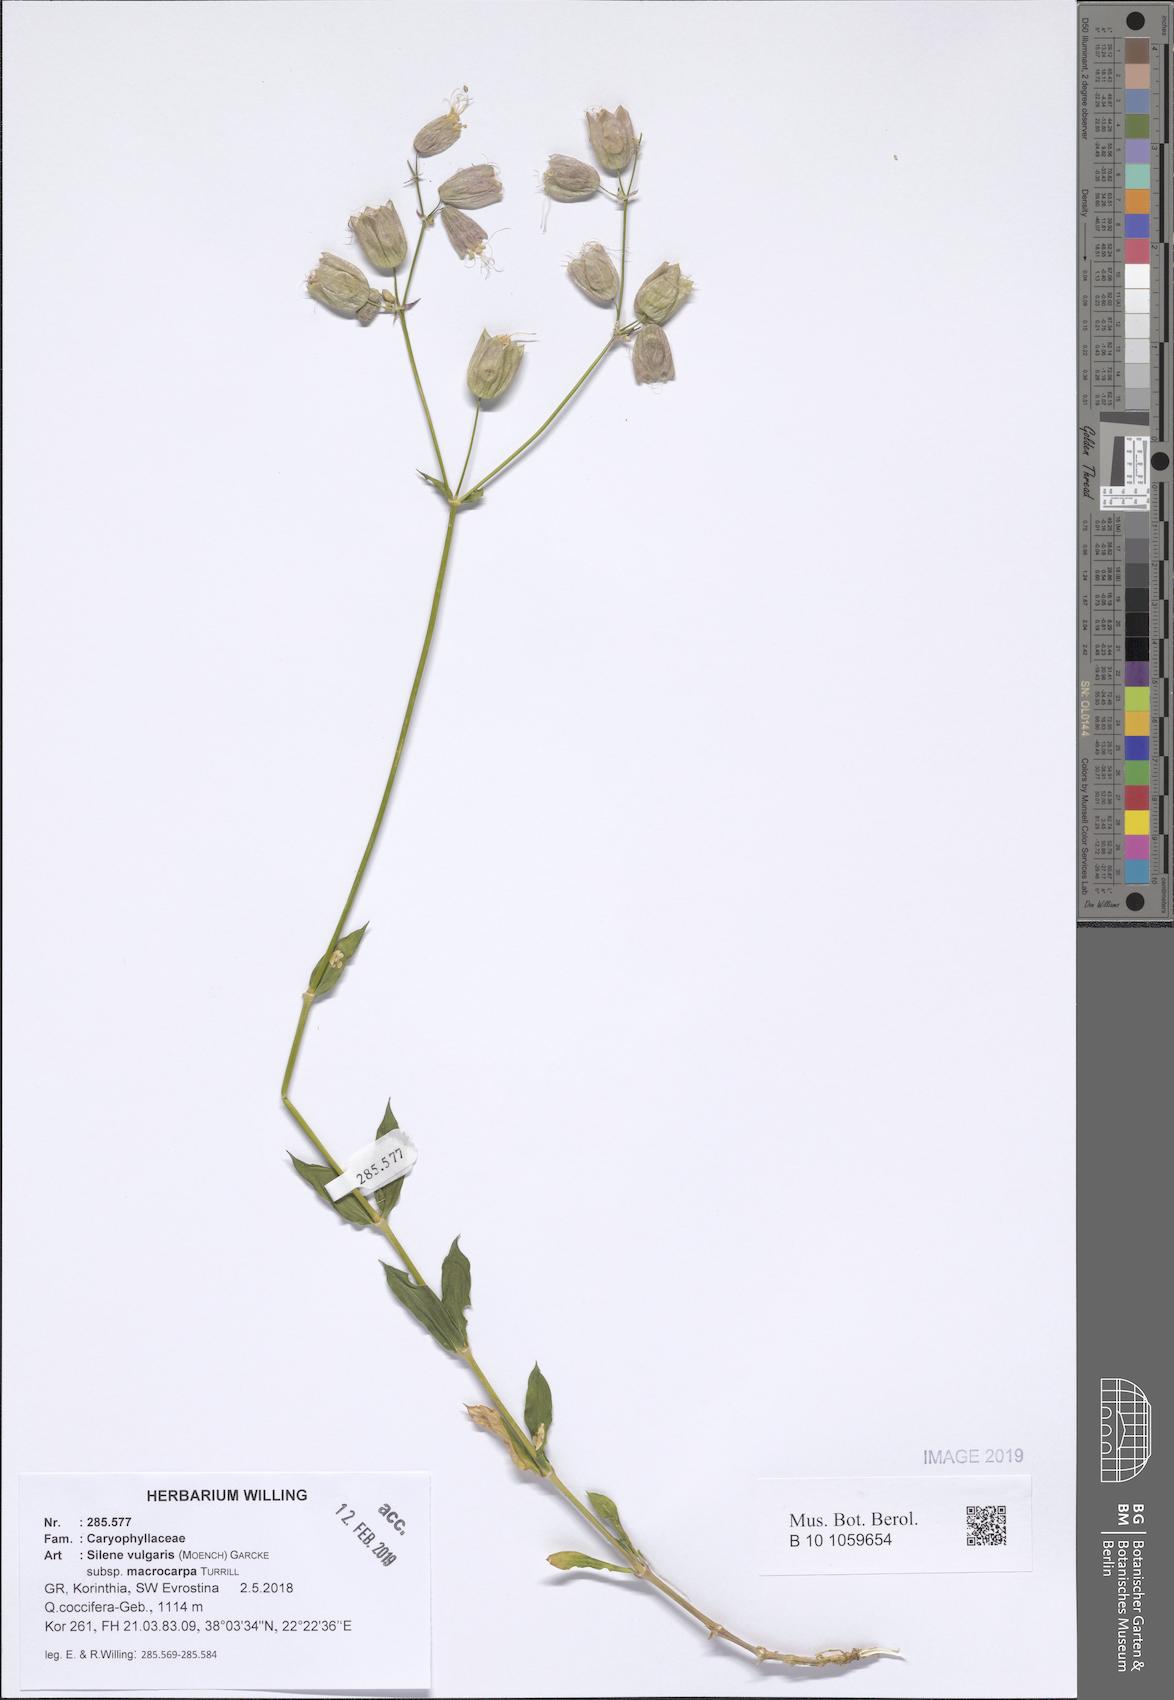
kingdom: Plantae
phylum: Tracheophyta
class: Magnoliopsida
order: Caryophyllales
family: Caryophyllaceae
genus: Silene
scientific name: Silene vulgaris
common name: Bladder campion
